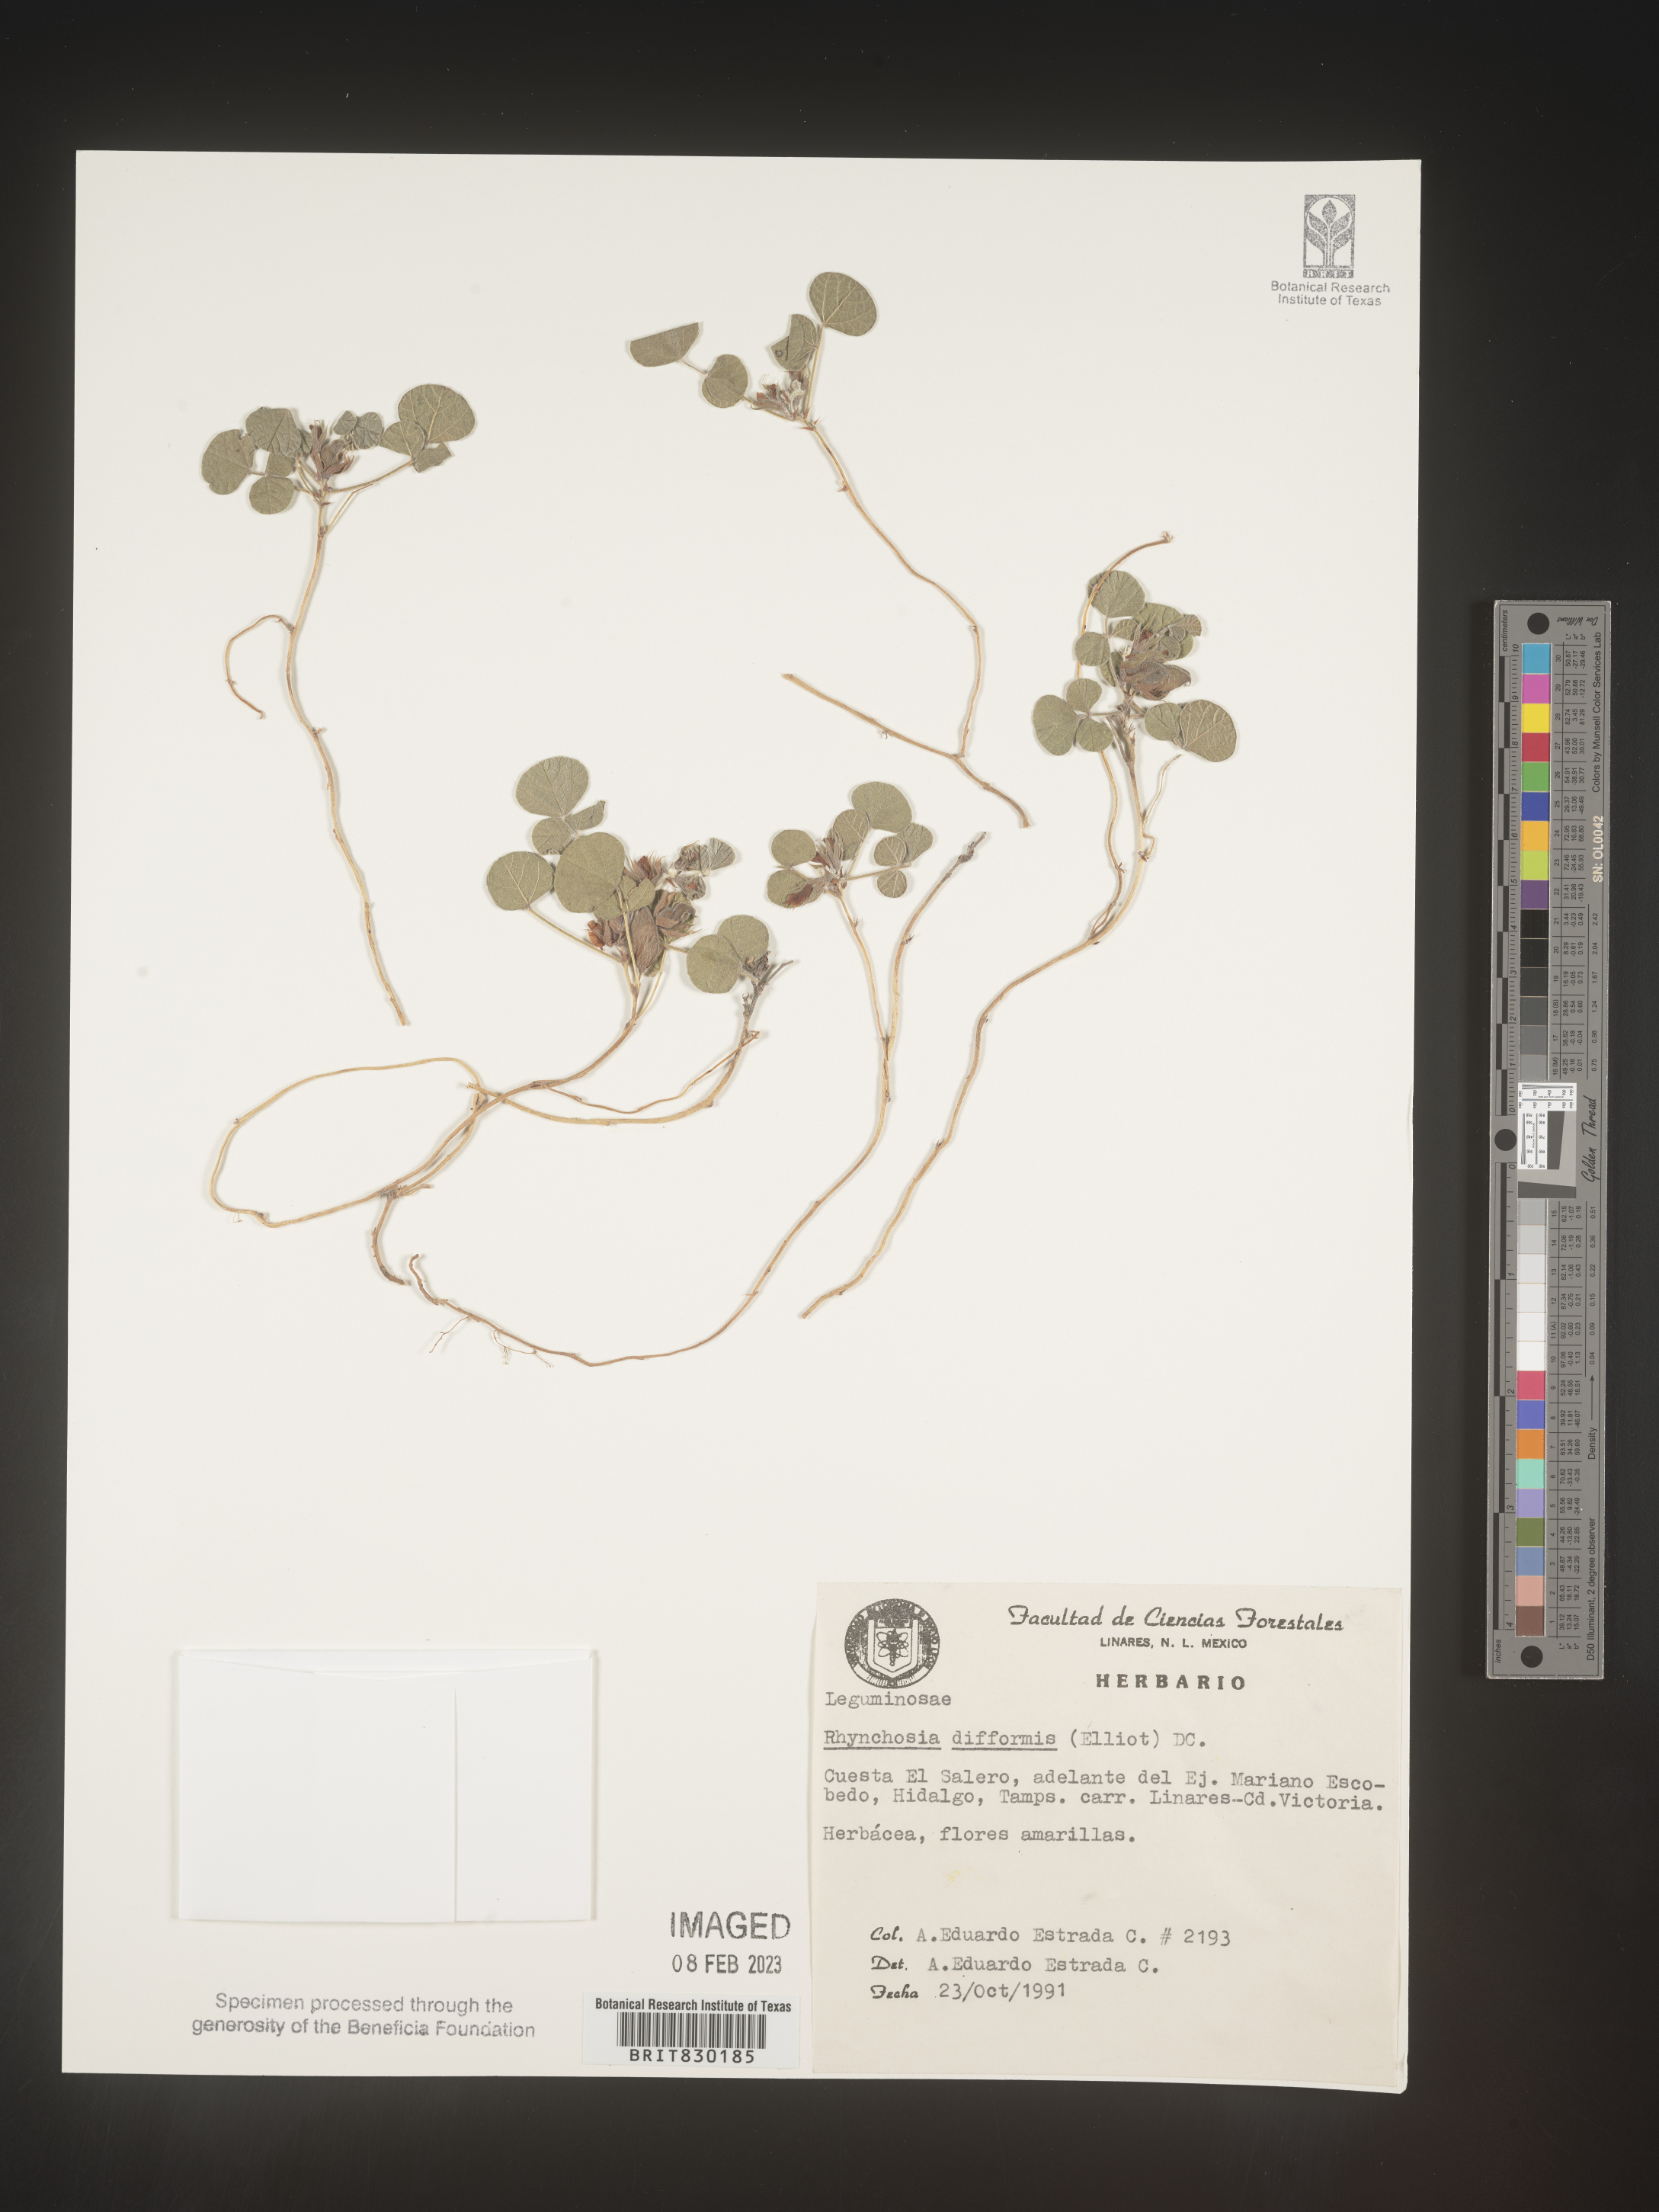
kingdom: Plantae
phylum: Tracheophyta
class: Magnoliopsida
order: Fabales
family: Fabaceae
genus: Rhynchosia
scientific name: Rhynchosia
